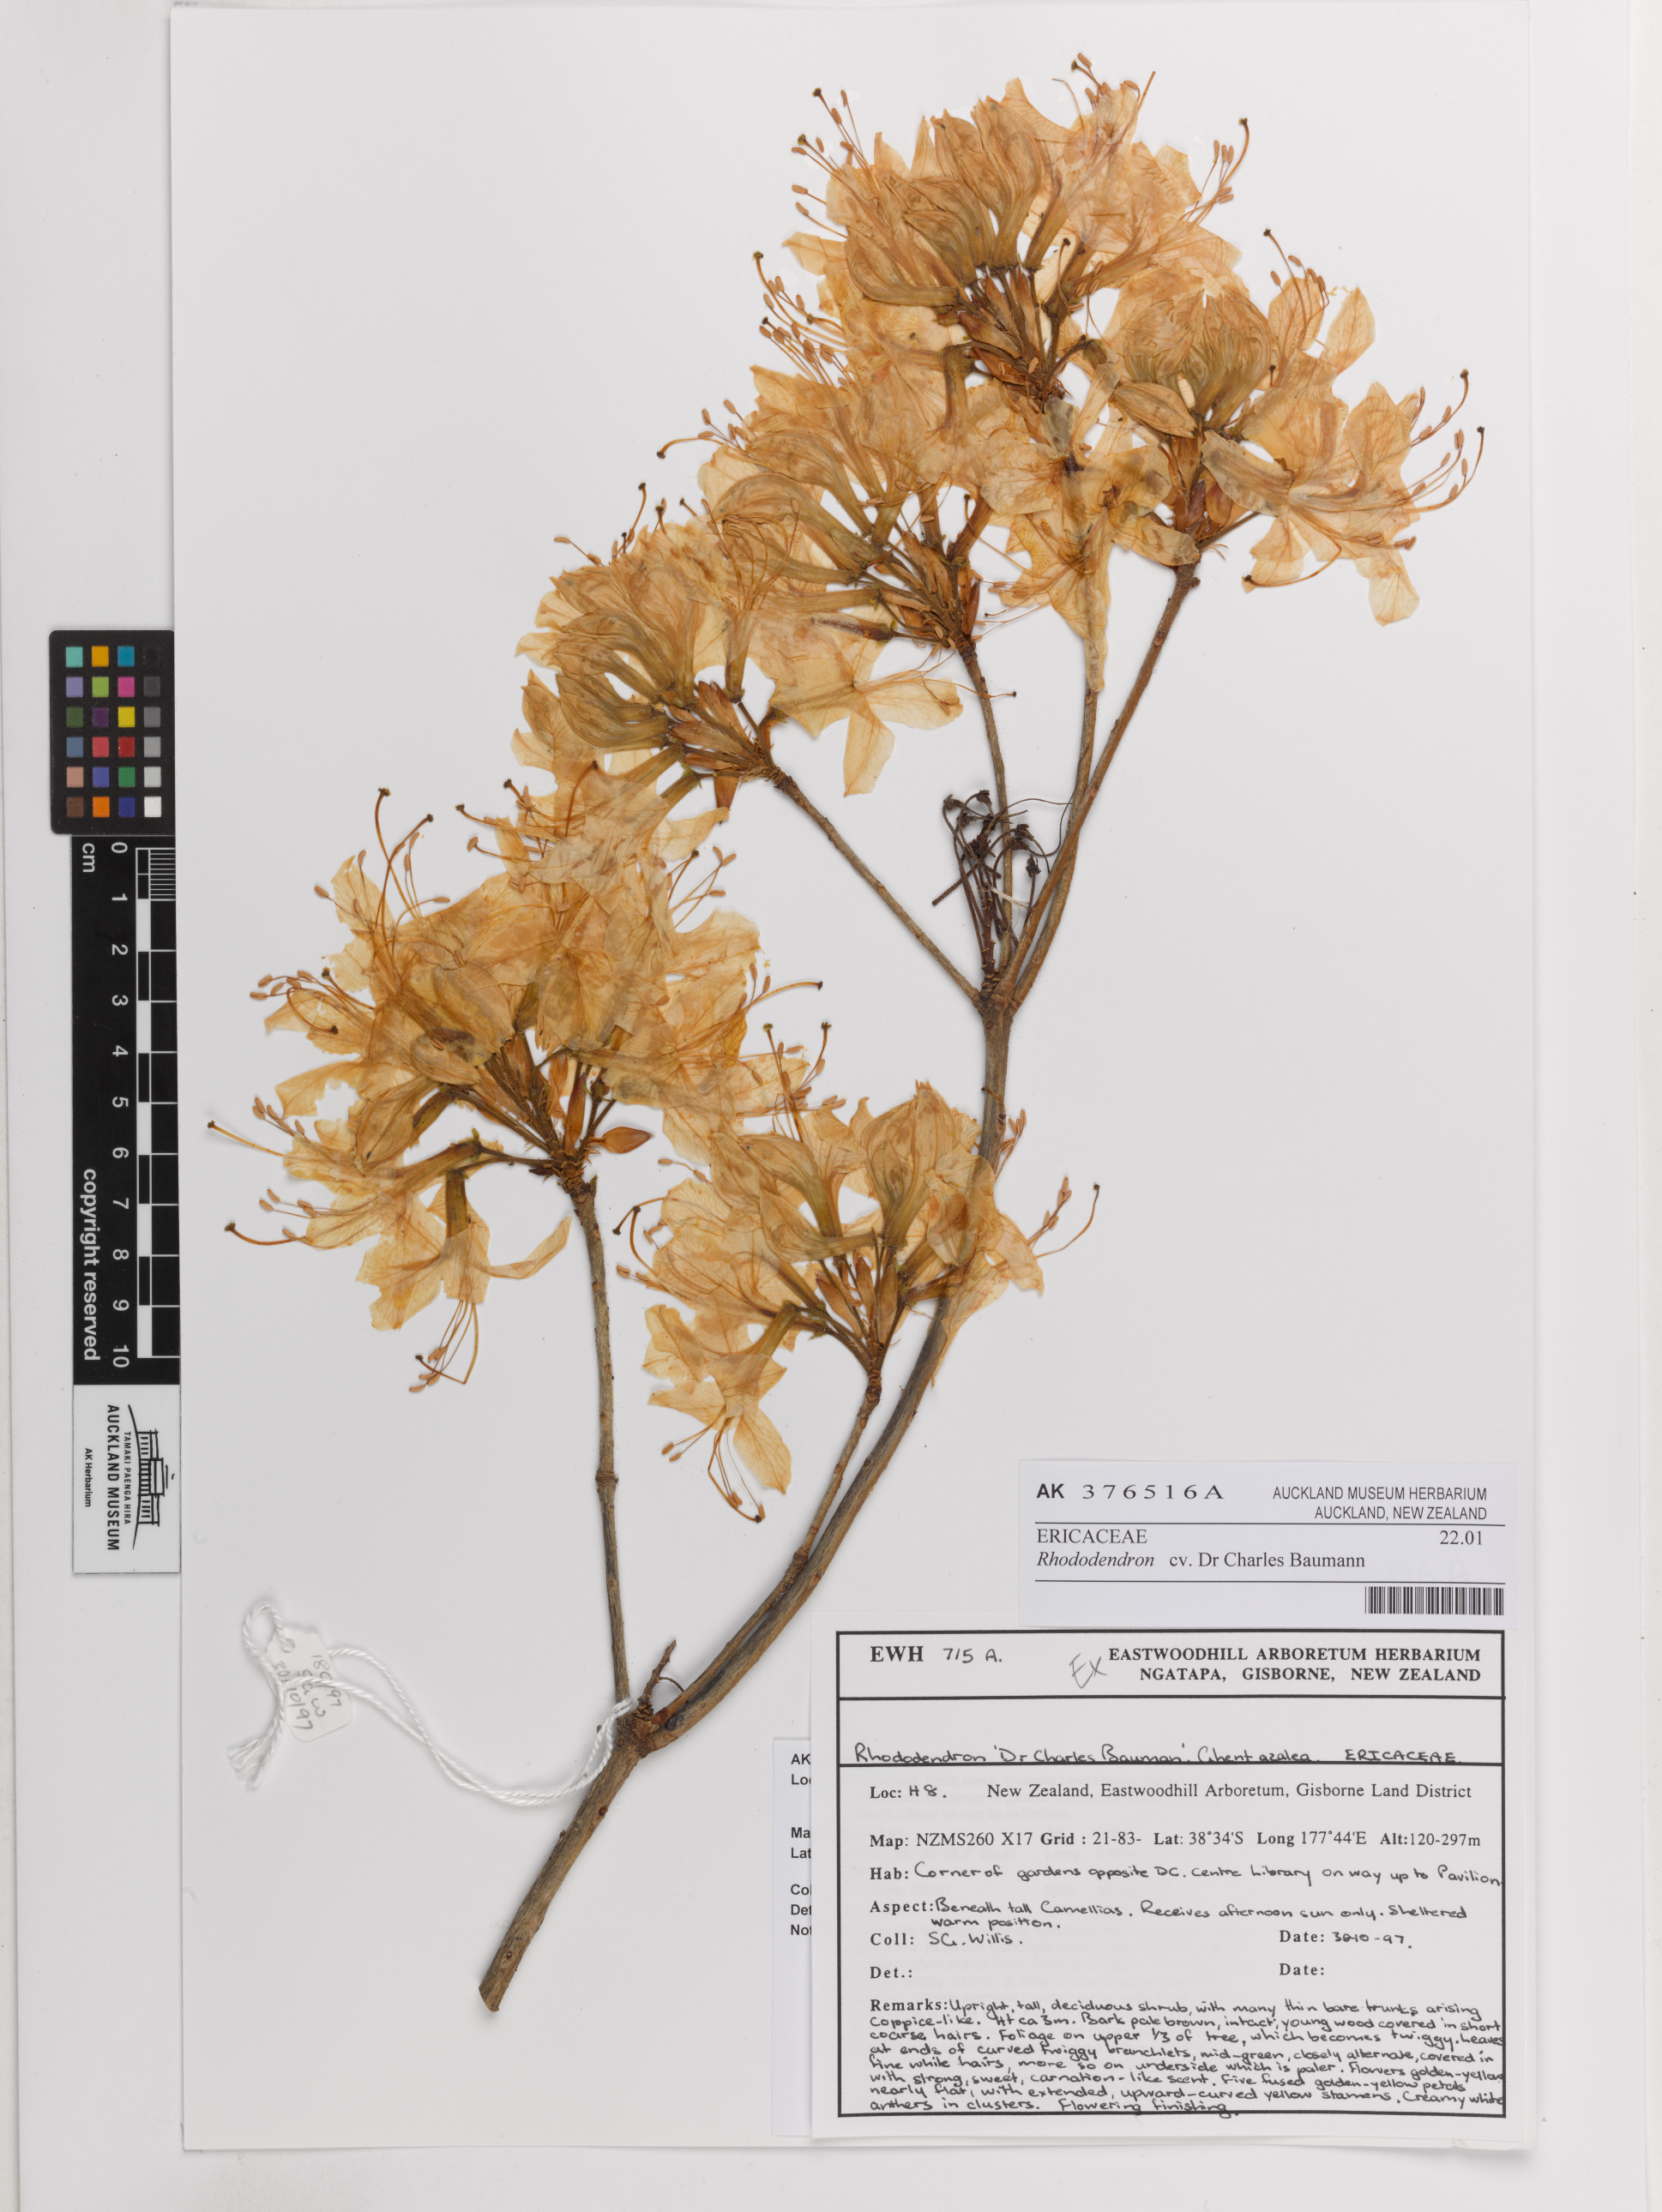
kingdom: Plantae
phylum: Tracheophyta
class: Magnoliopsida
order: Ericales
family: Ericaceae
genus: Rhododendron
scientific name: Rhododendron
